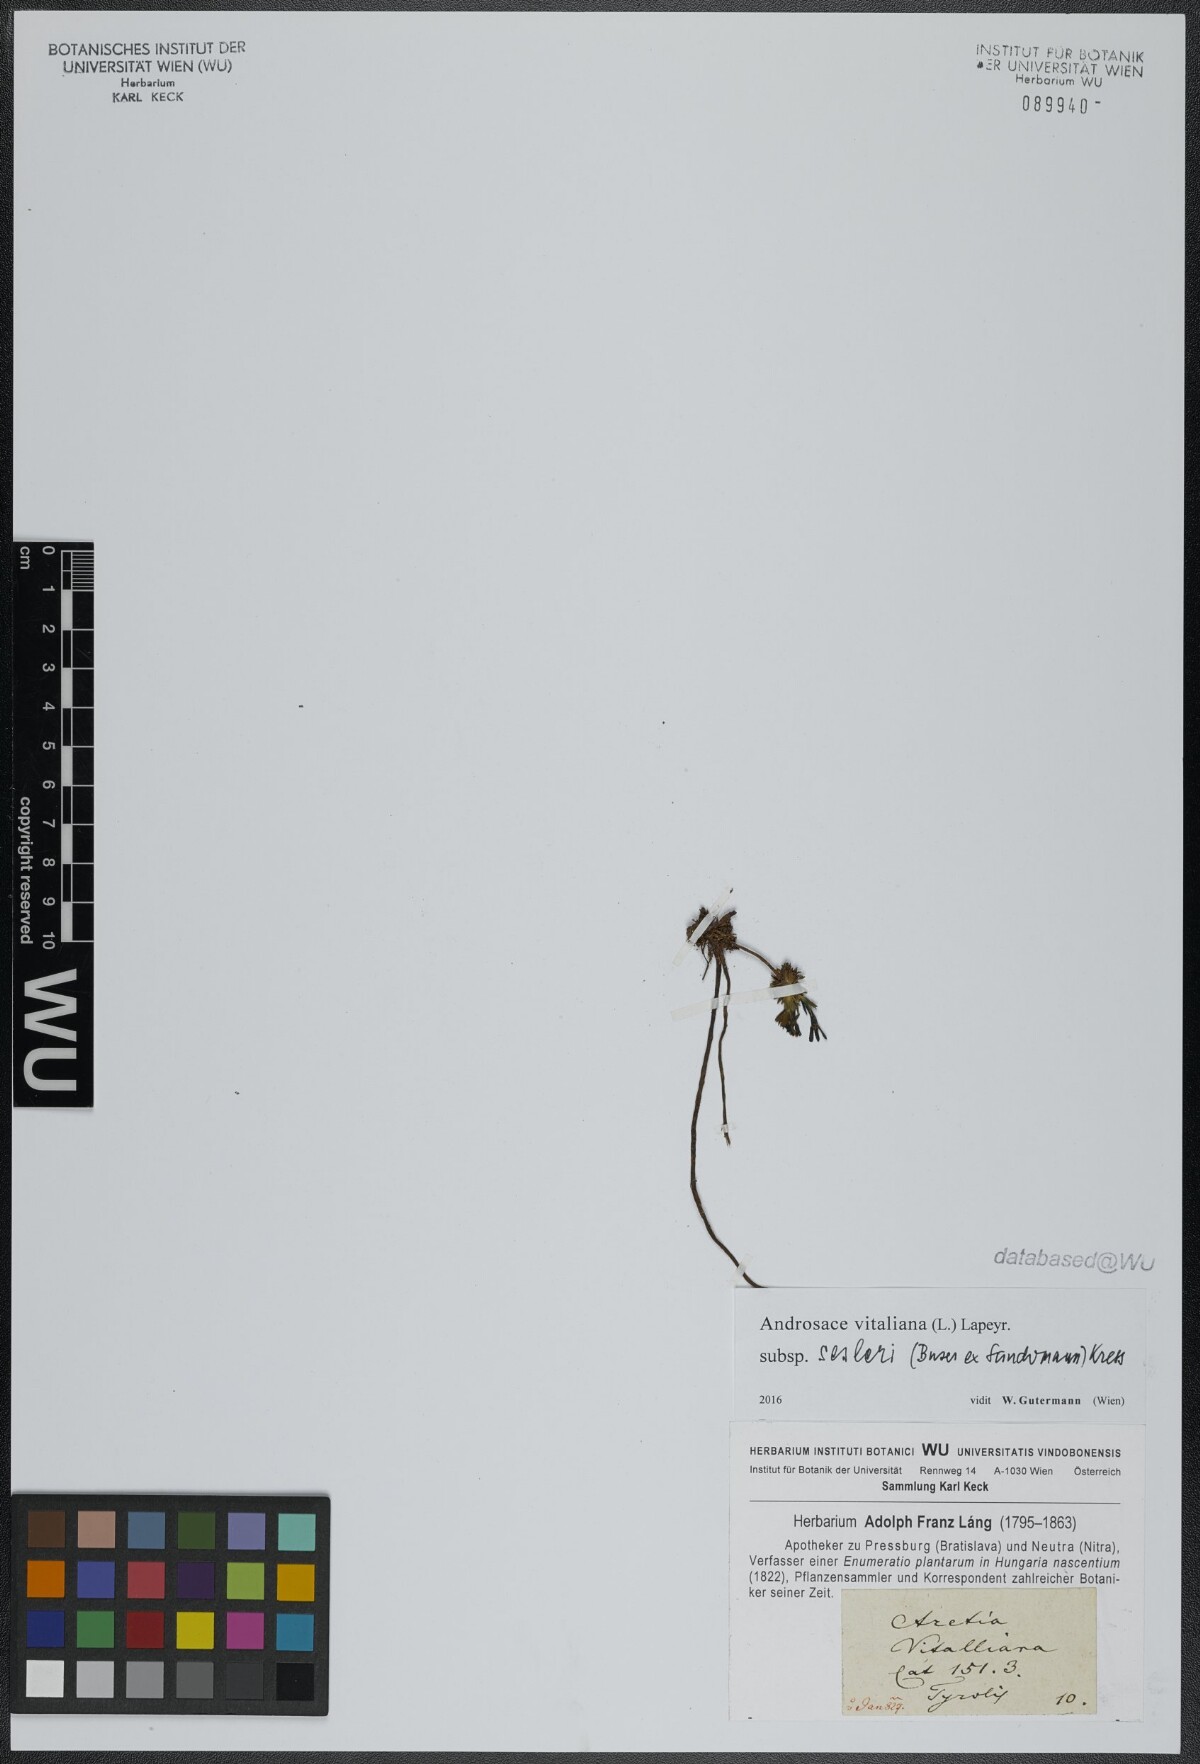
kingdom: Plantae
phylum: Tracheophyta
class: Magnoliopsida
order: Ericales
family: Primulaceae
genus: Androsace
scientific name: Androsace vitaliana
